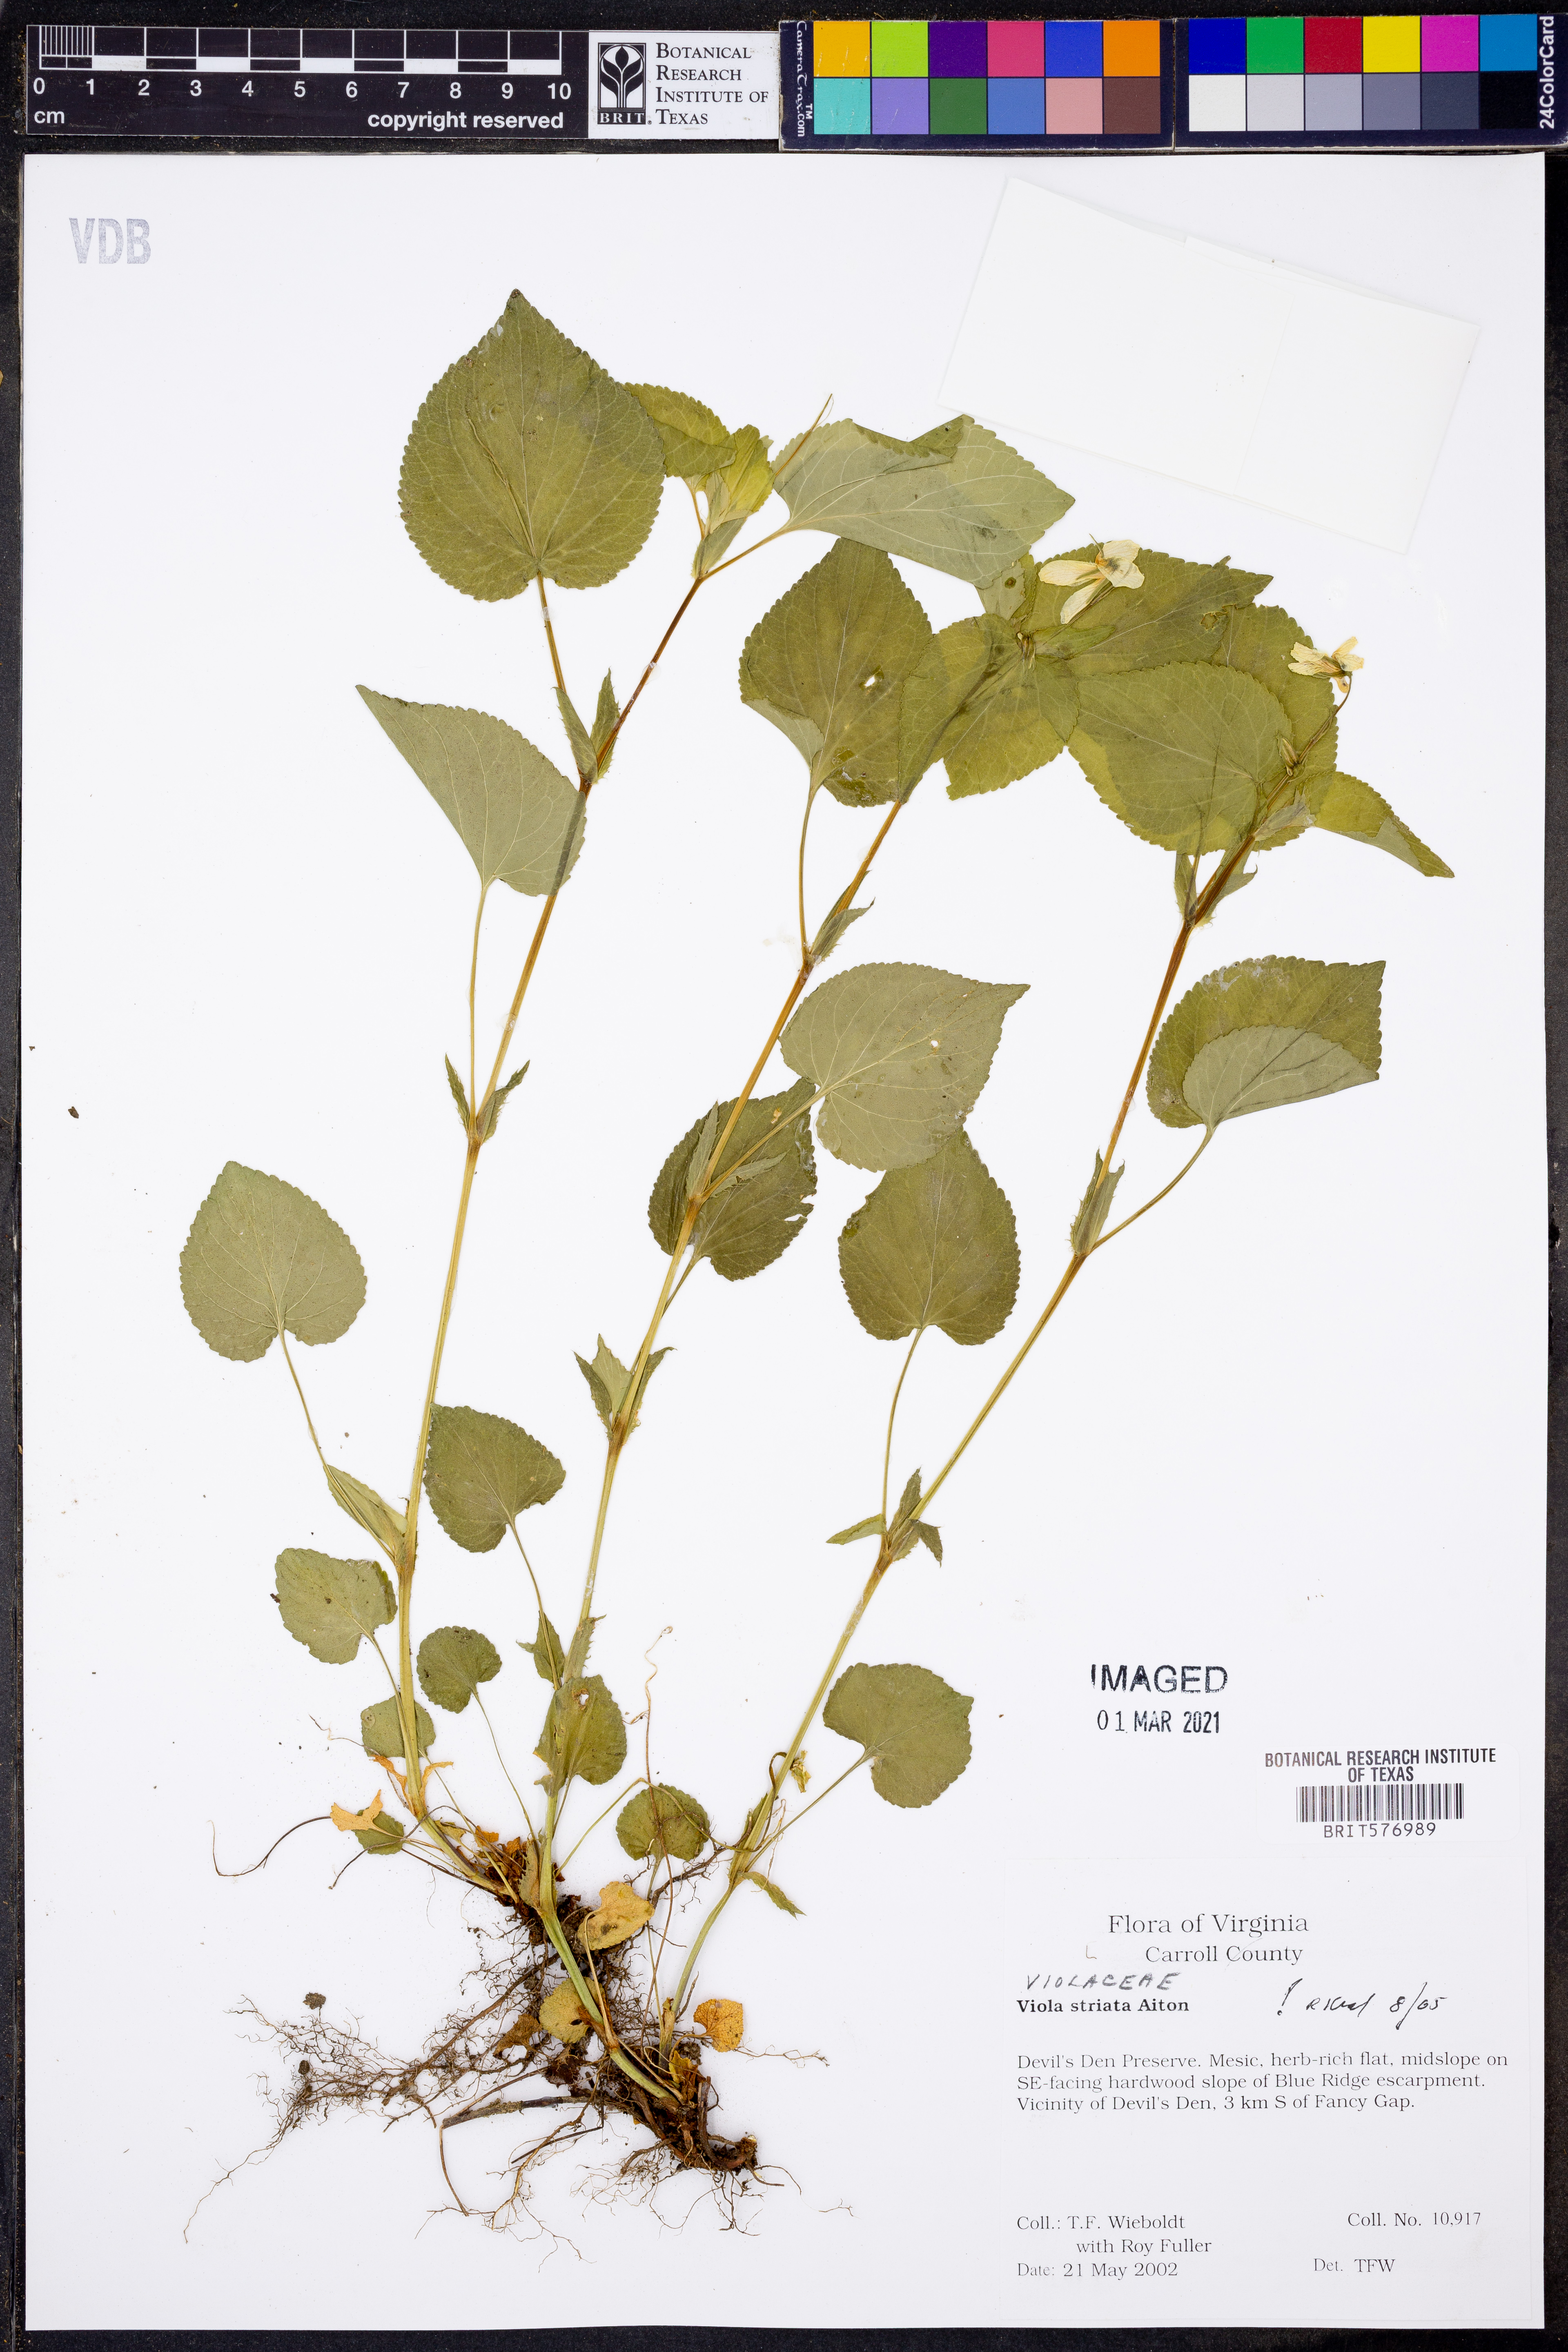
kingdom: Plantae
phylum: Tracheophyta
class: Magnoliopsida
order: Malpighiales
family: Violaceae
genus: Viola
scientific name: Viola striata
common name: Cream violet
